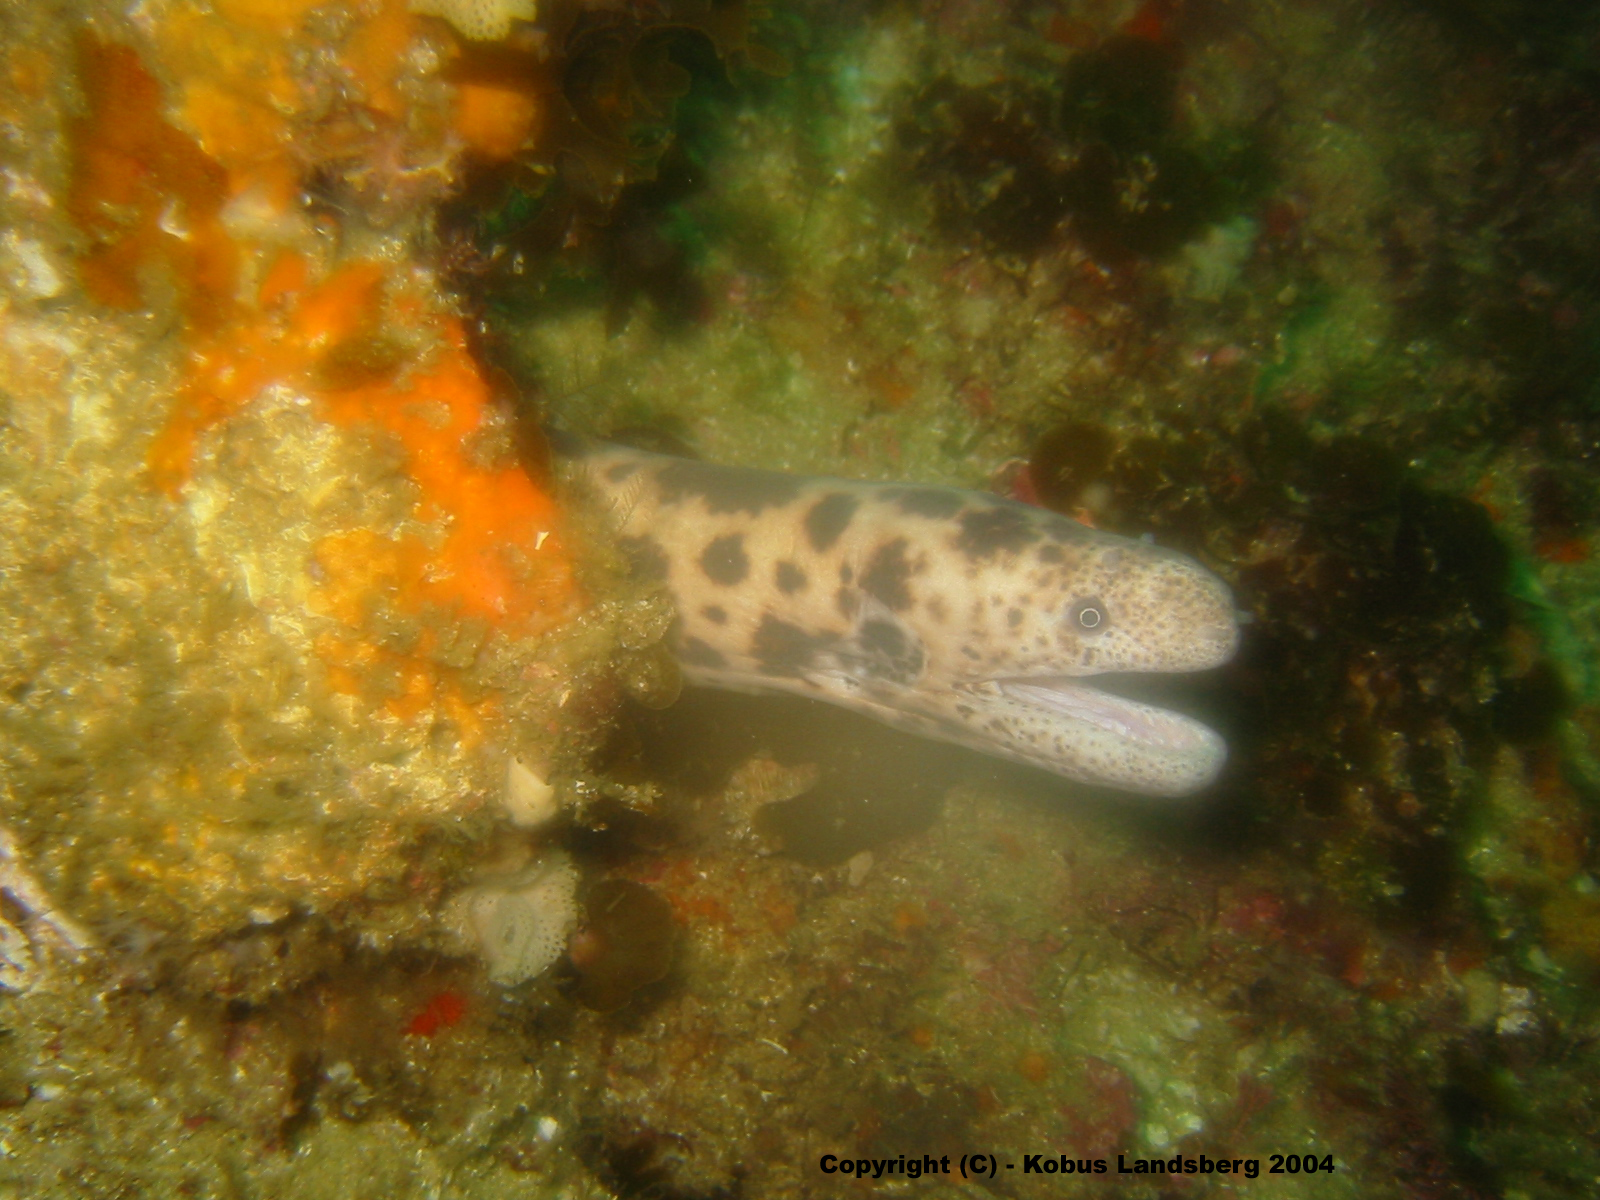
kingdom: Animalia
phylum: Chordata
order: Anguilliformes
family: Muraenidae
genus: Scuticaria
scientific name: Scuticaria tigrina
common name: Tiger moray
